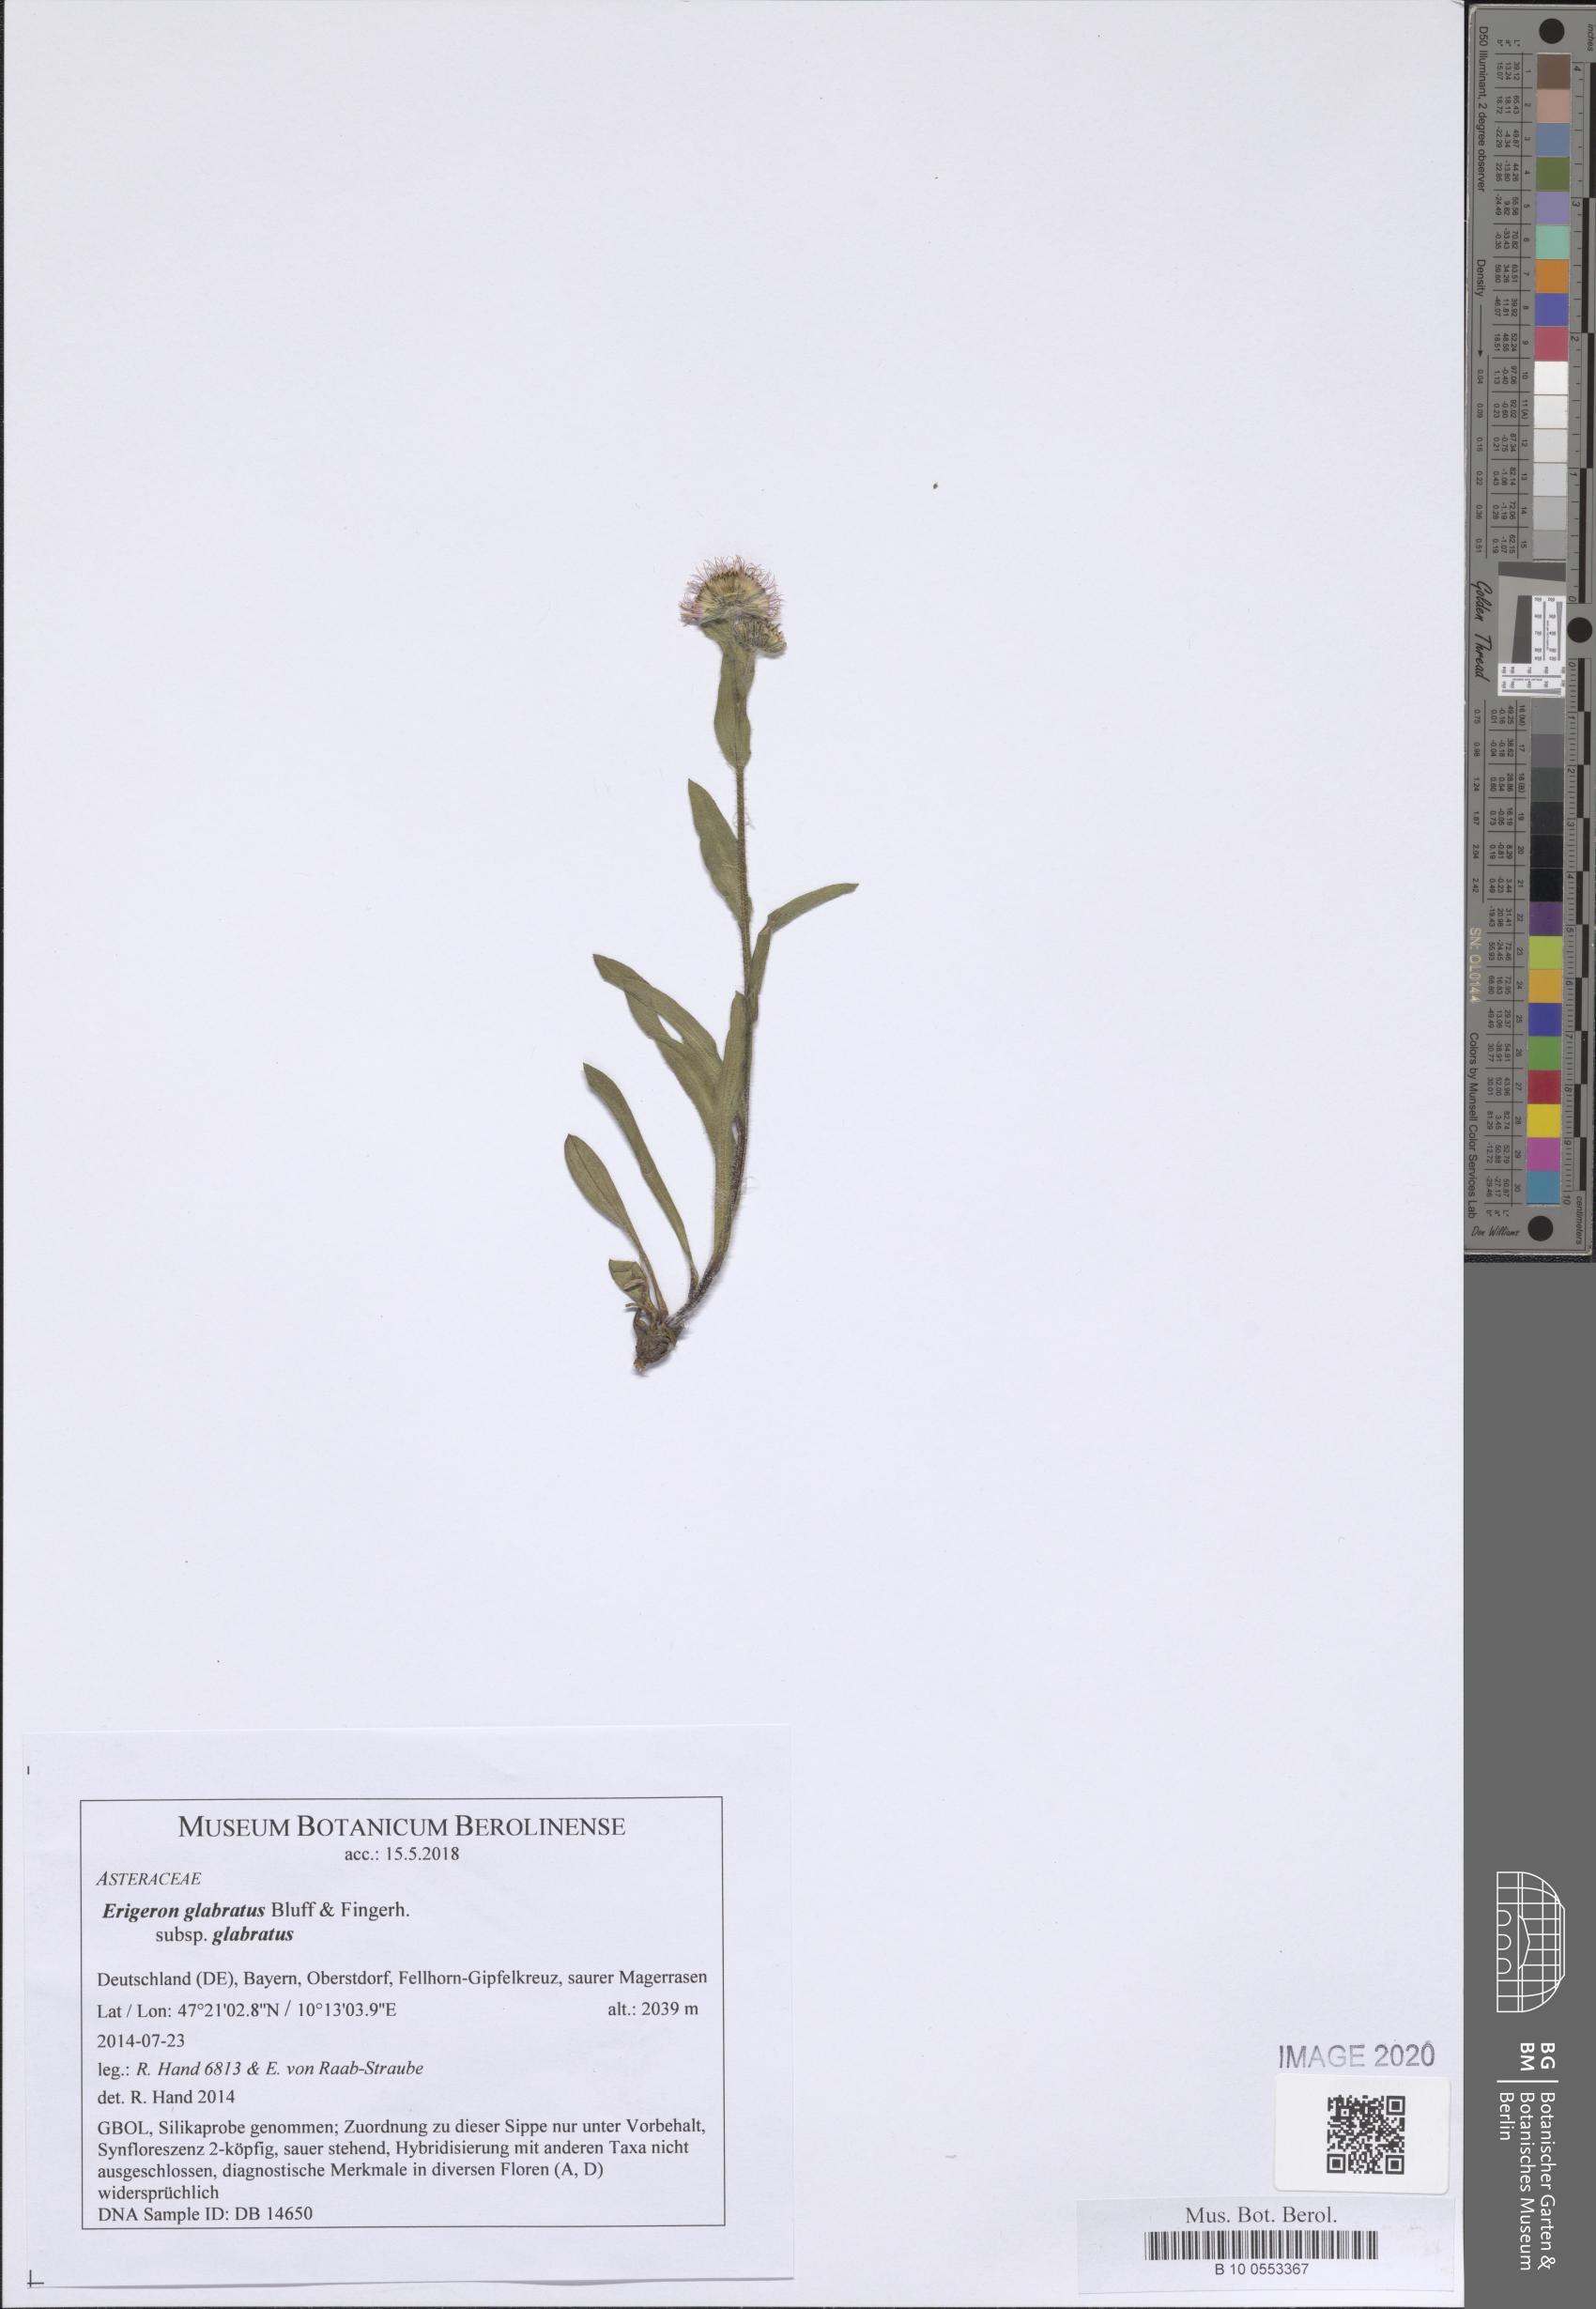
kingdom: Plantae
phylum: Tracheophyta
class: Magnoliopsida
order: Asterales
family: Asteraceae
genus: Erigeron
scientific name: Erigeron glabratus
